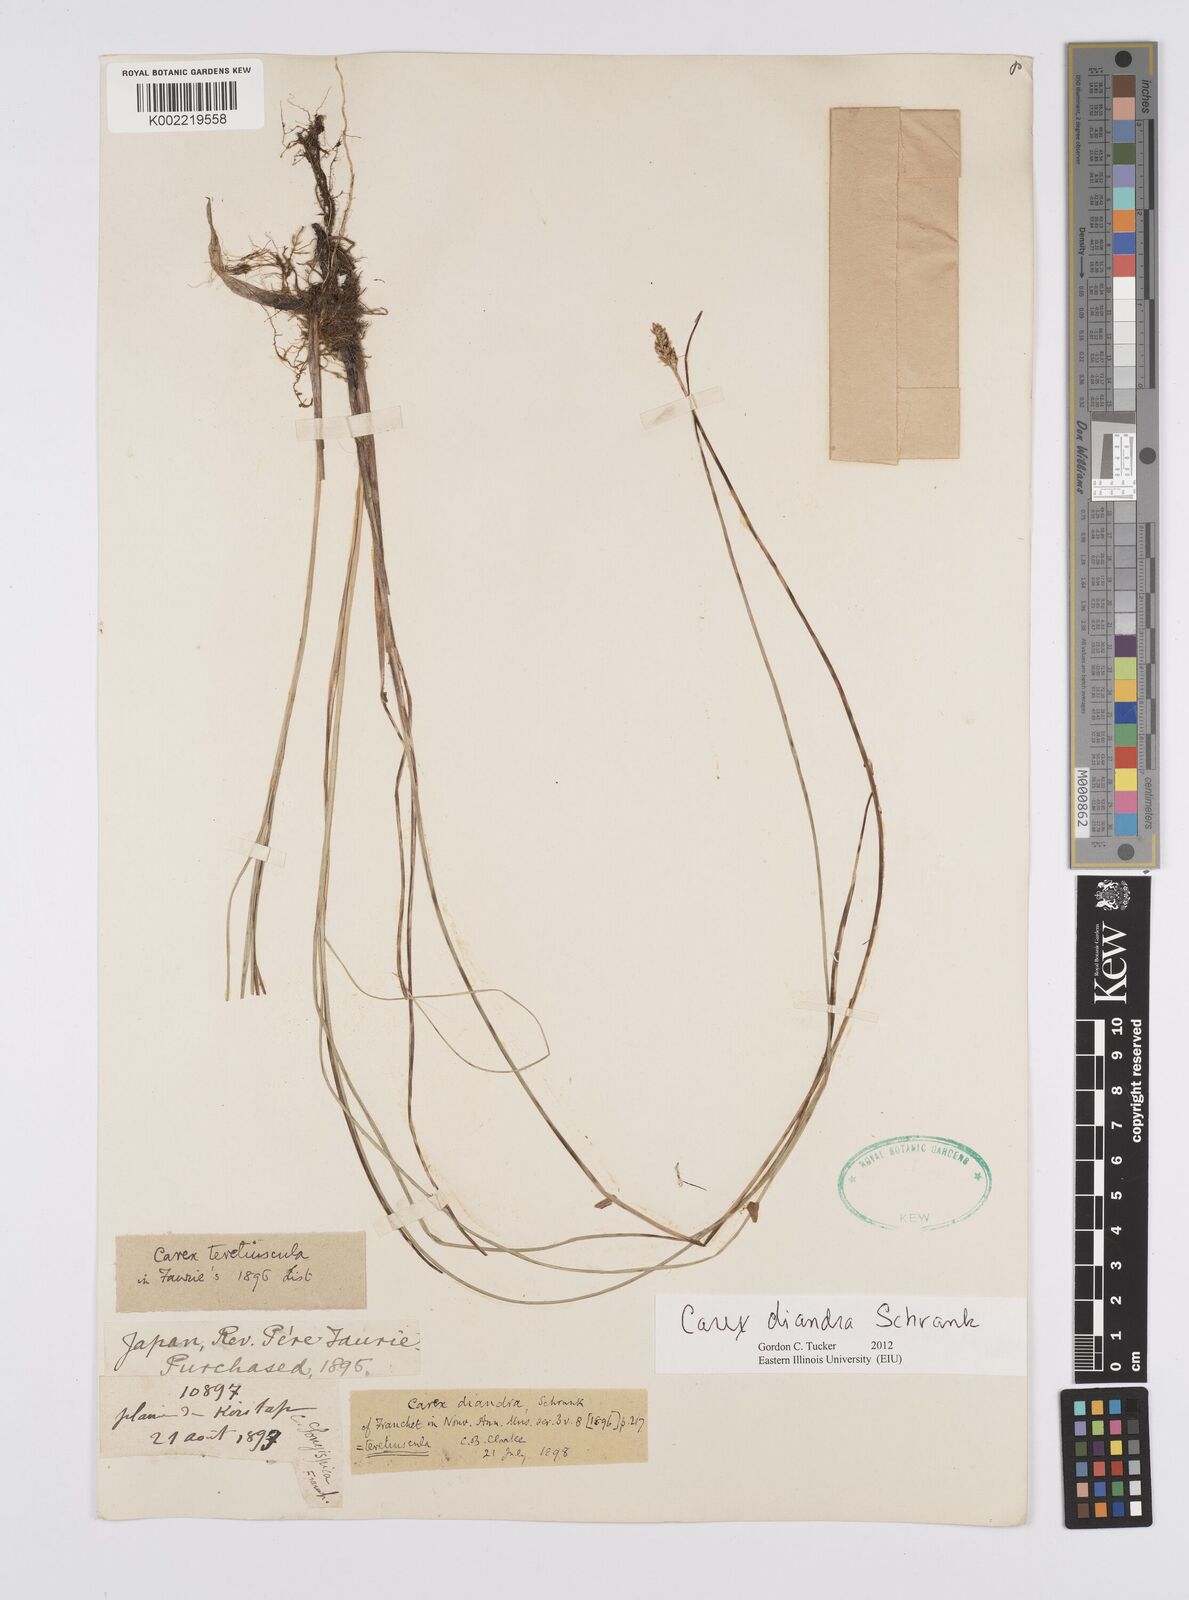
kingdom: Plantae
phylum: Tracheophyta
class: Liliopsida
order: Poales
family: Cyperaceae
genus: Carex
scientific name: Carex diandra
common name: Lesser tussock-sedge
